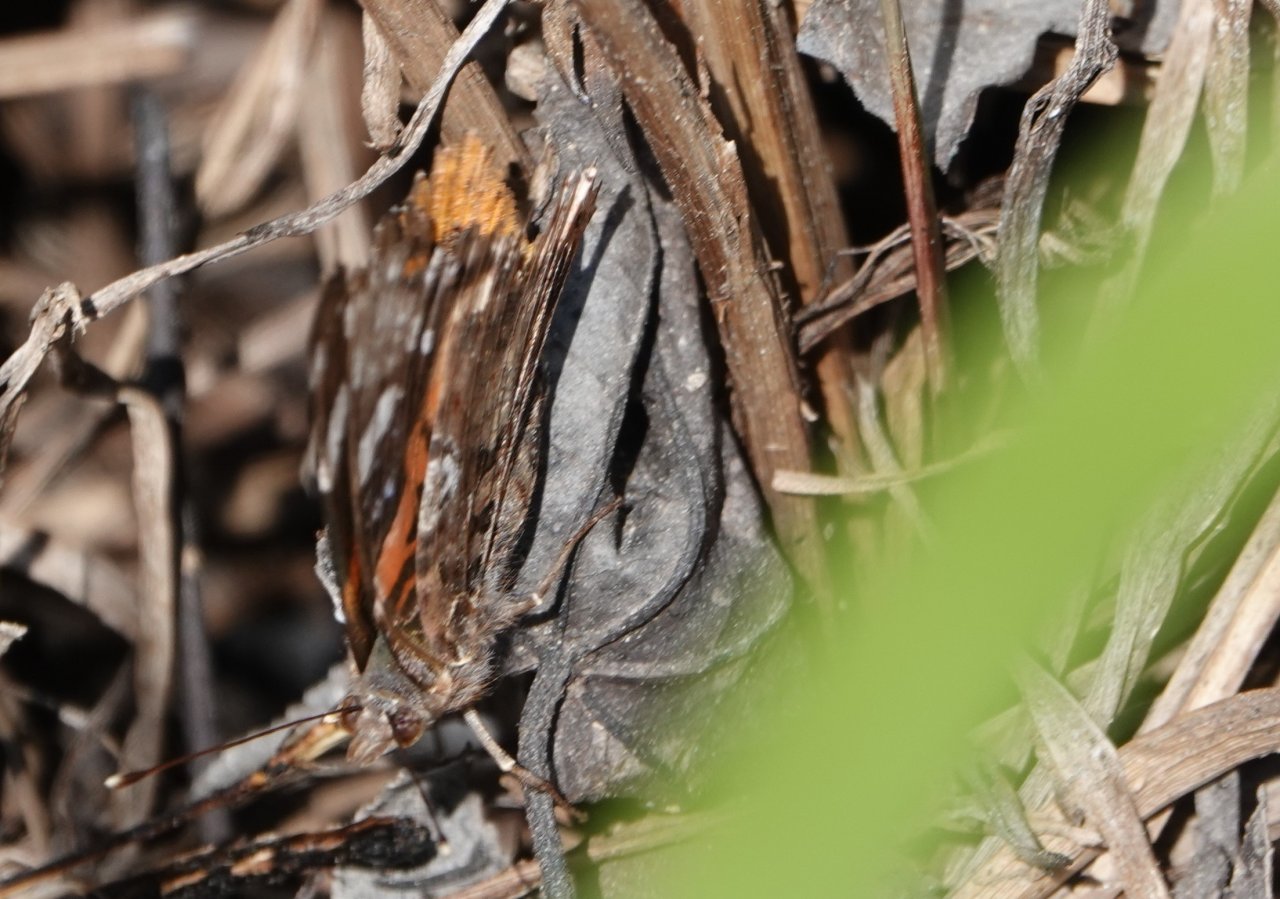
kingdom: Animalia
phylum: Arthropoda
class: Insecta
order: Lepidoptera
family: Nymphalidae
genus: Vanessa
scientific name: Vanessa atalanta
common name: Red Admiral
